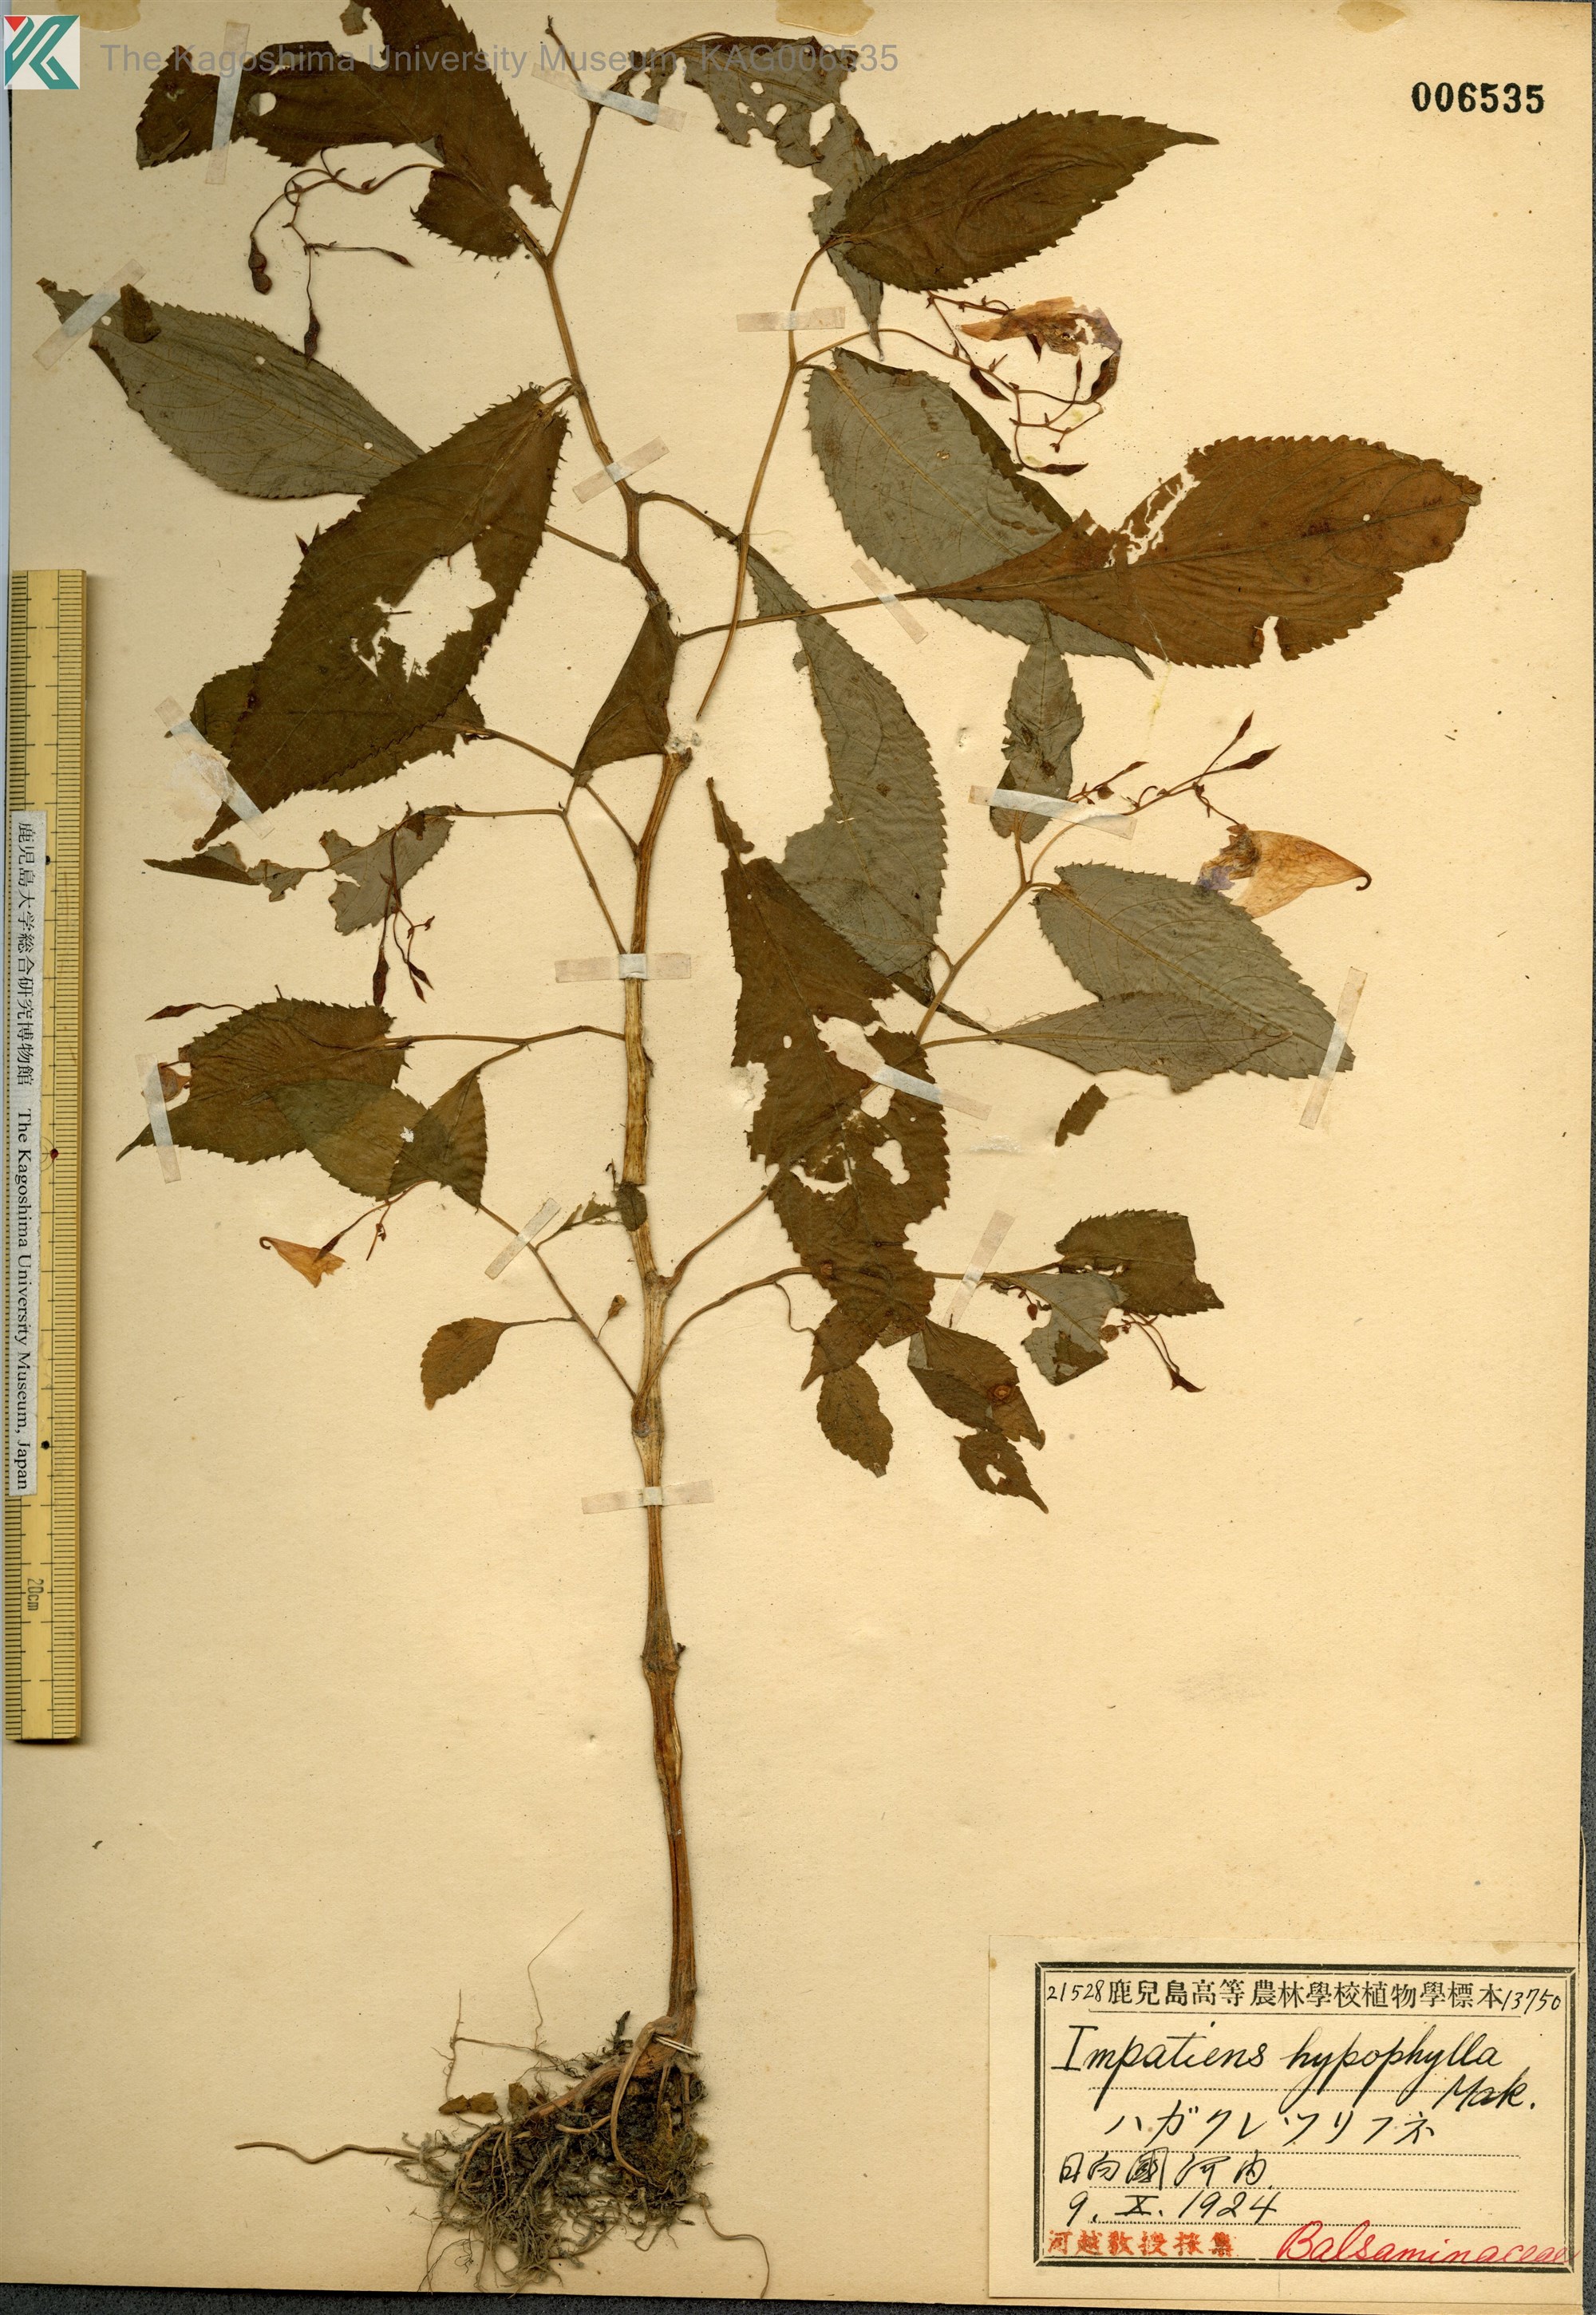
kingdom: Plantae
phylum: Tracheophyta
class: Magnoliopsida
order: Ericales
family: Balsaminaceae
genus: Impatiens
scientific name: Impatiens hypophylla
